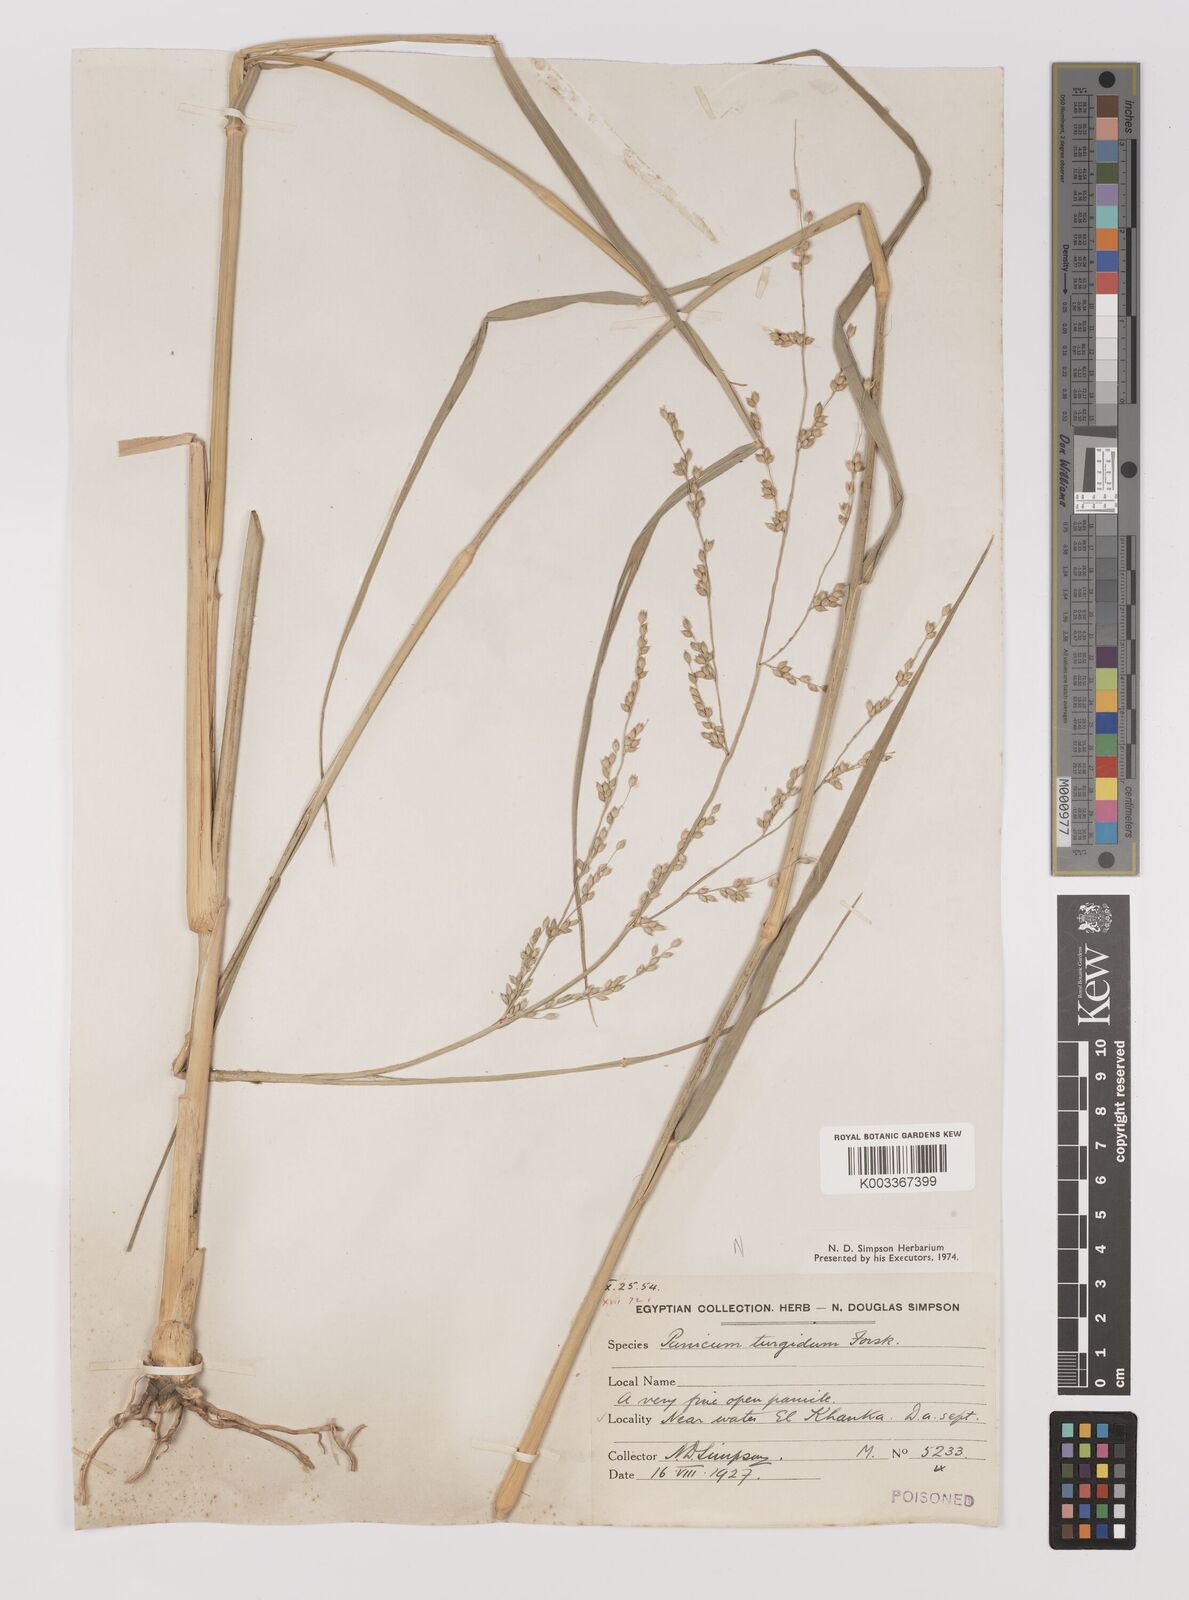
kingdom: Plantae
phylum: Tracheophyta
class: Liliopsida
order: Poales
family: Poaceae
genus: Panicum
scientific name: Panicum turgidum
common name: Desert grass
